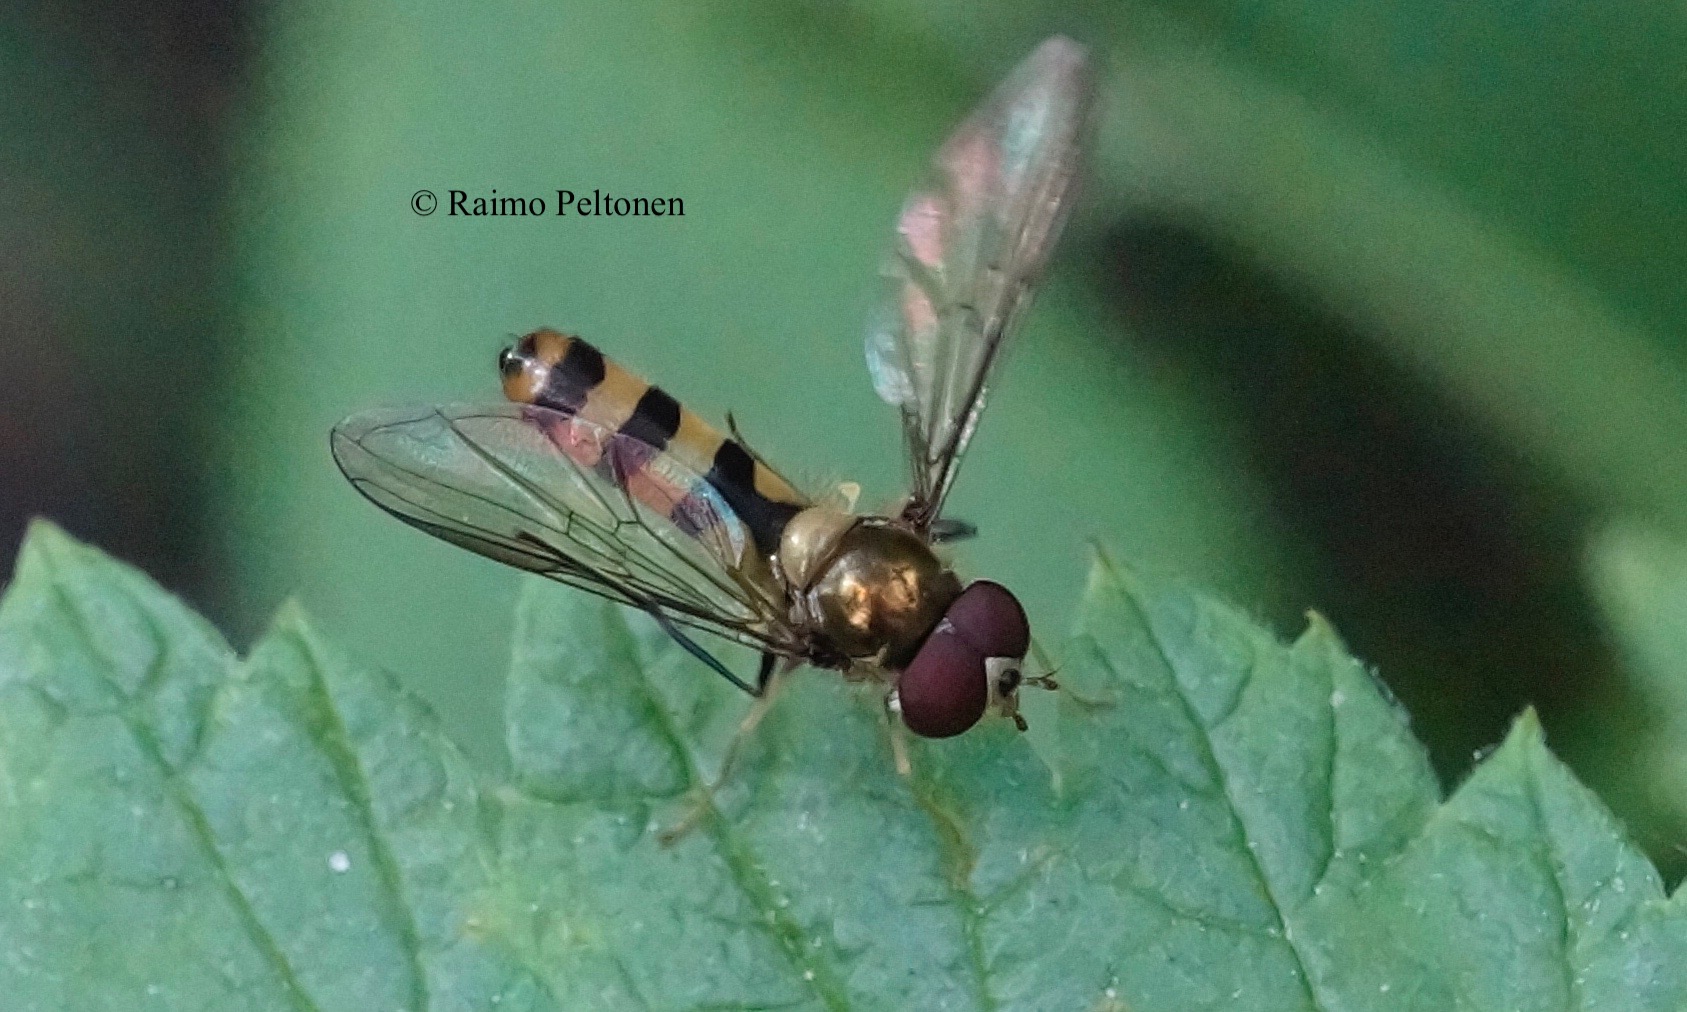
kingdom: Animalia
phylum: Arthropoda
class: Insecta
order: Diptera
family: Syrphidae
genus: Meliscaeva
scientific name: Meliscaeva cinctella
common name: American thintail fly
